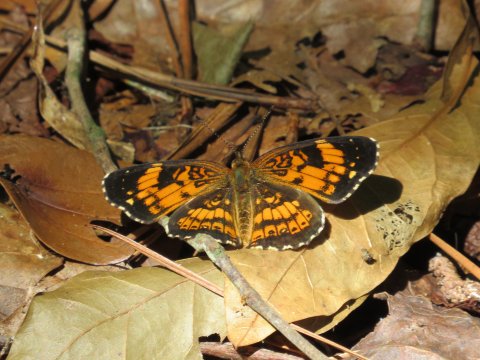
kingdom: Animalia
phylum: Arthropoda
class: Insecta
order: Lepidoptera
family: Nymphalidae
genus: Chlosyne
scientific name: Chlosyne nycteis
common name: Silvery Checkerspot
